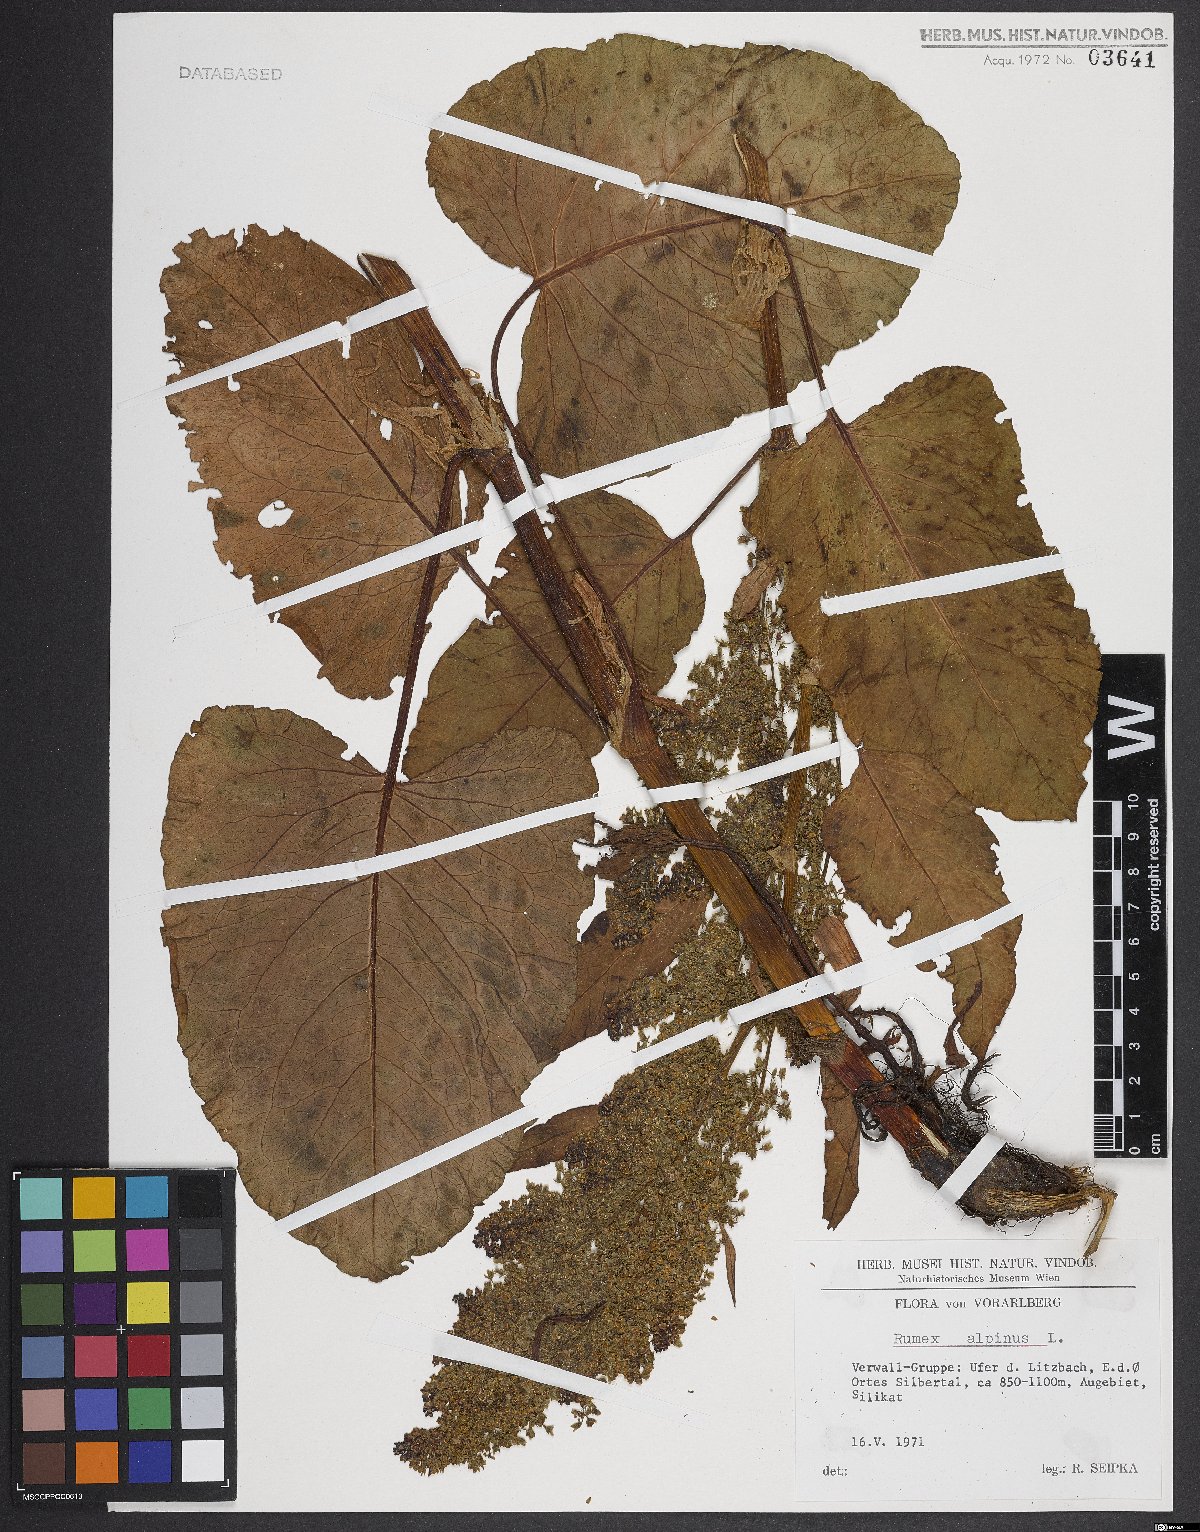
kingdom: Plantae
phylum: Tracheophyta
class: Magnoliopsida
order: Caryophyllales
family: Polygonaceae
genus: Rumex
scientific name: Rumex alpinus
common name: Alpine dock
